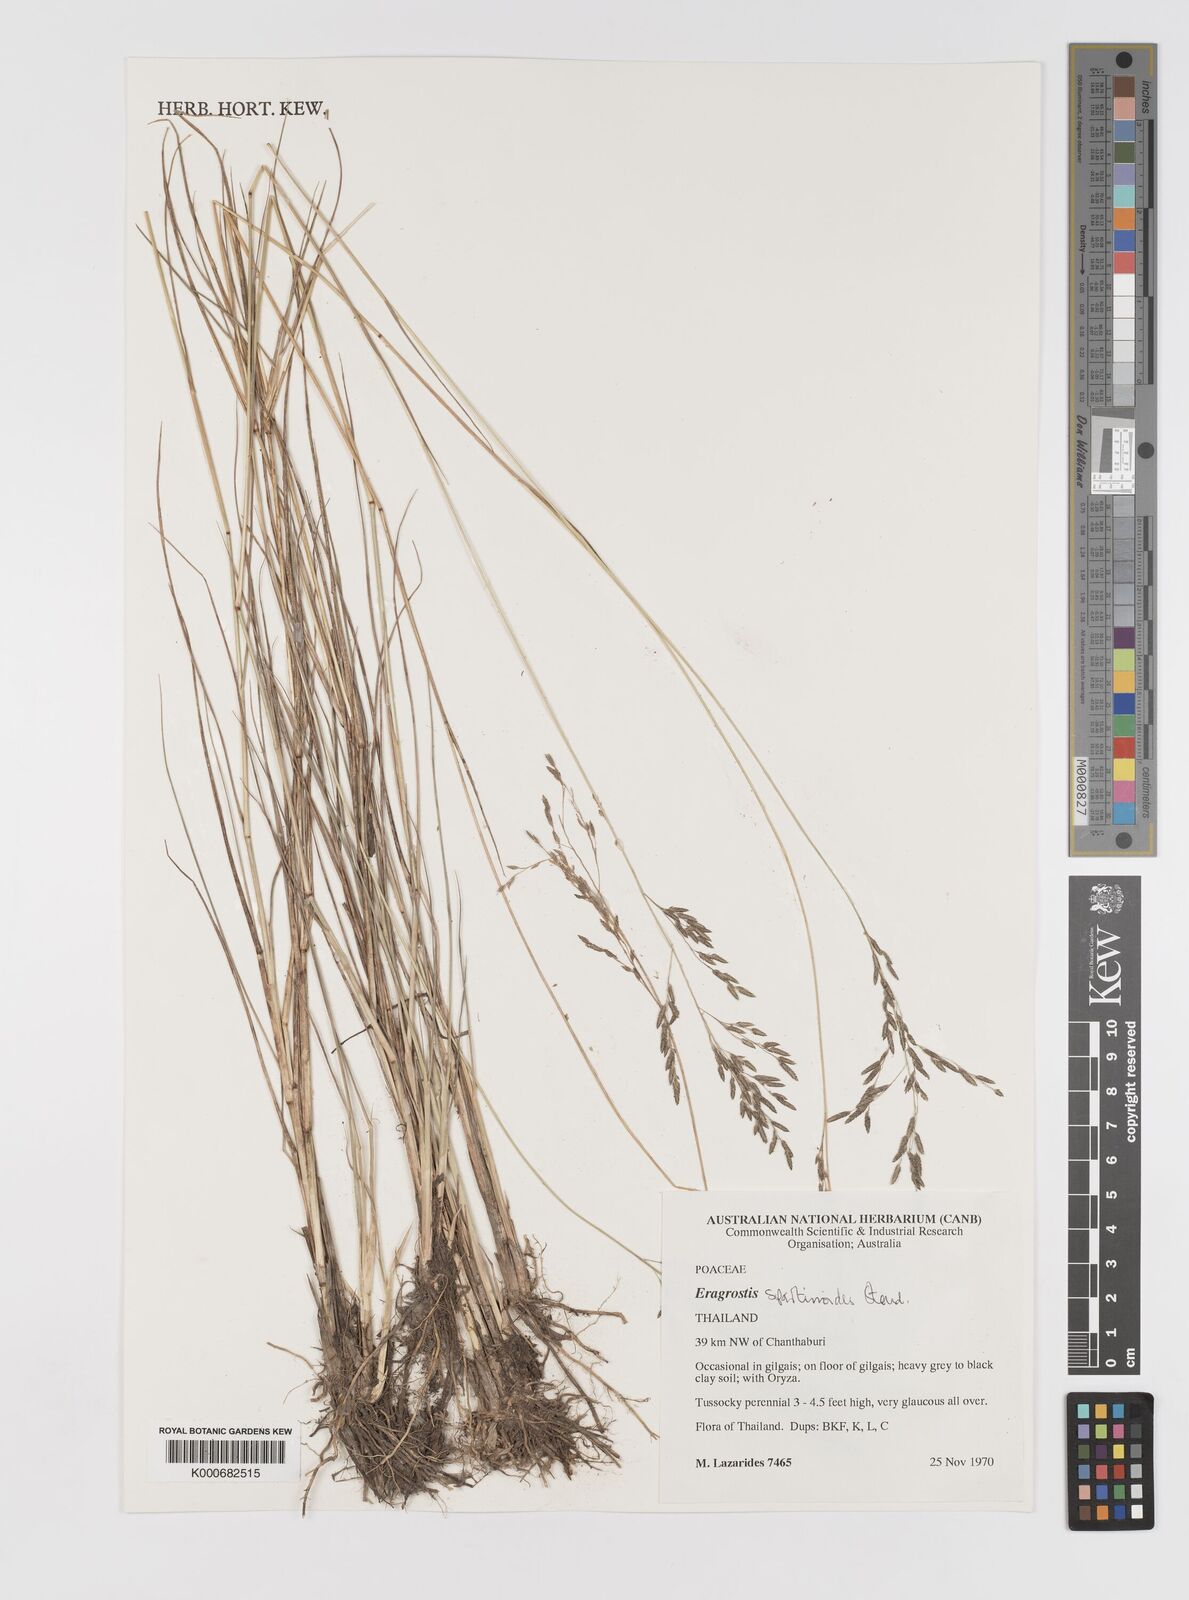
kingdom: Plantae
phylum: Tracheophyta
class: Liliopsida
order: Poales
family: Poaceae
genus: Eragrostis
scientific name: Eragrostis brownii
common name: Lovegrass
